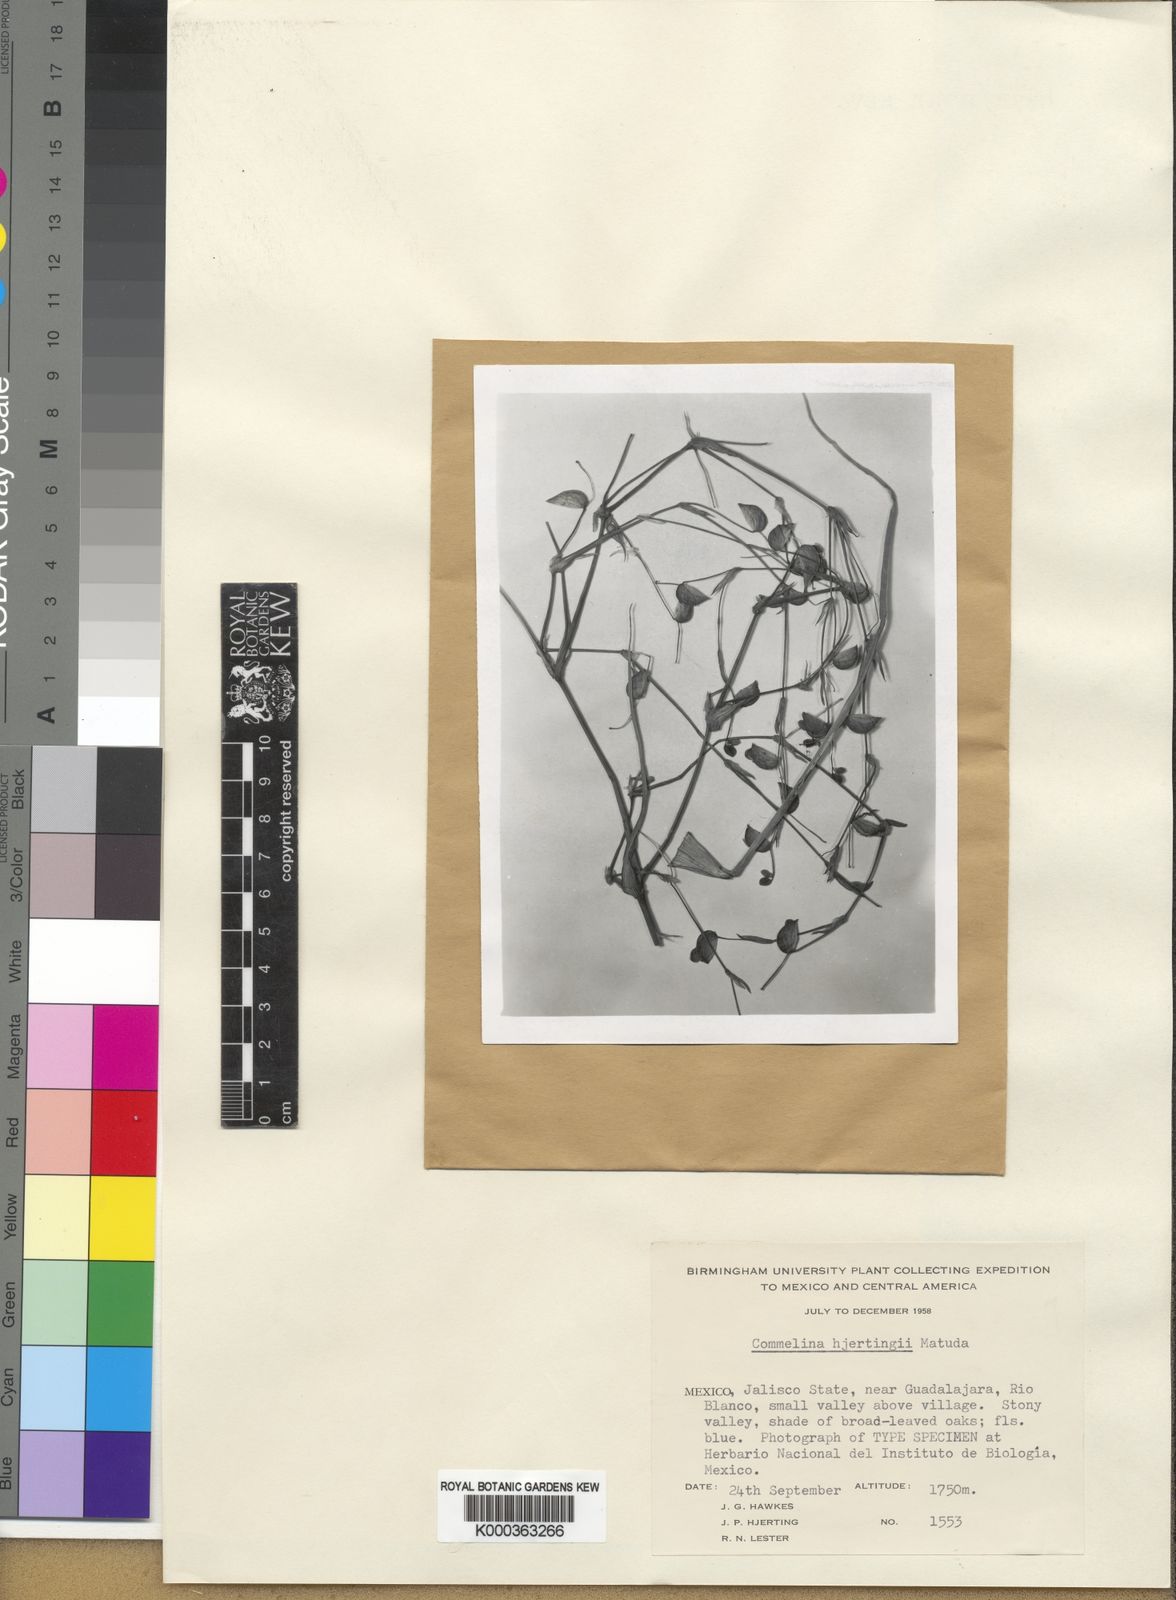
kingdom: Plantae
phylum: Tracheophyta
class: Liliopsida
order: Commelinales
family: Commelinaceae
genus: Commelina
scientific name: Commelina jaliscana
